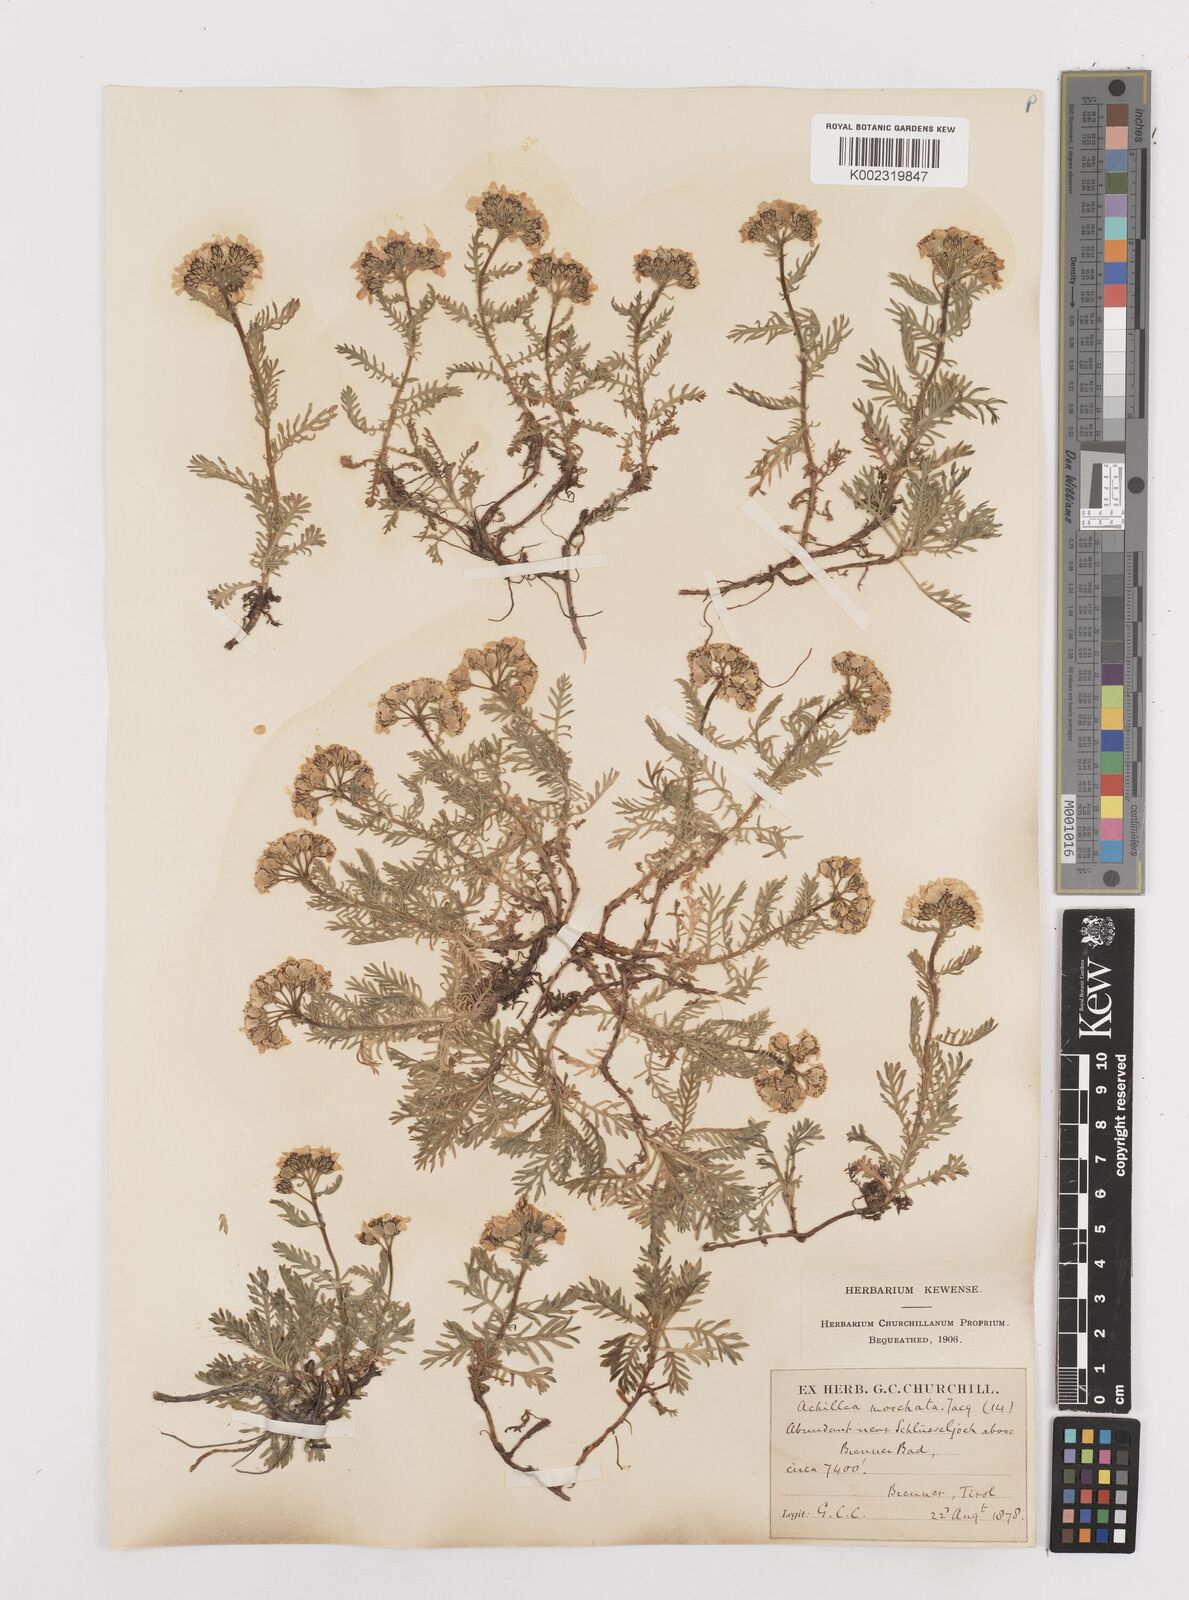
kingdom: Plantae
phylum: Tracheophyta
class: Magnoliopsida
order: Asterales
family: Asteraceae
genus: Achillea
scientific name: Achillea erba-rotta
